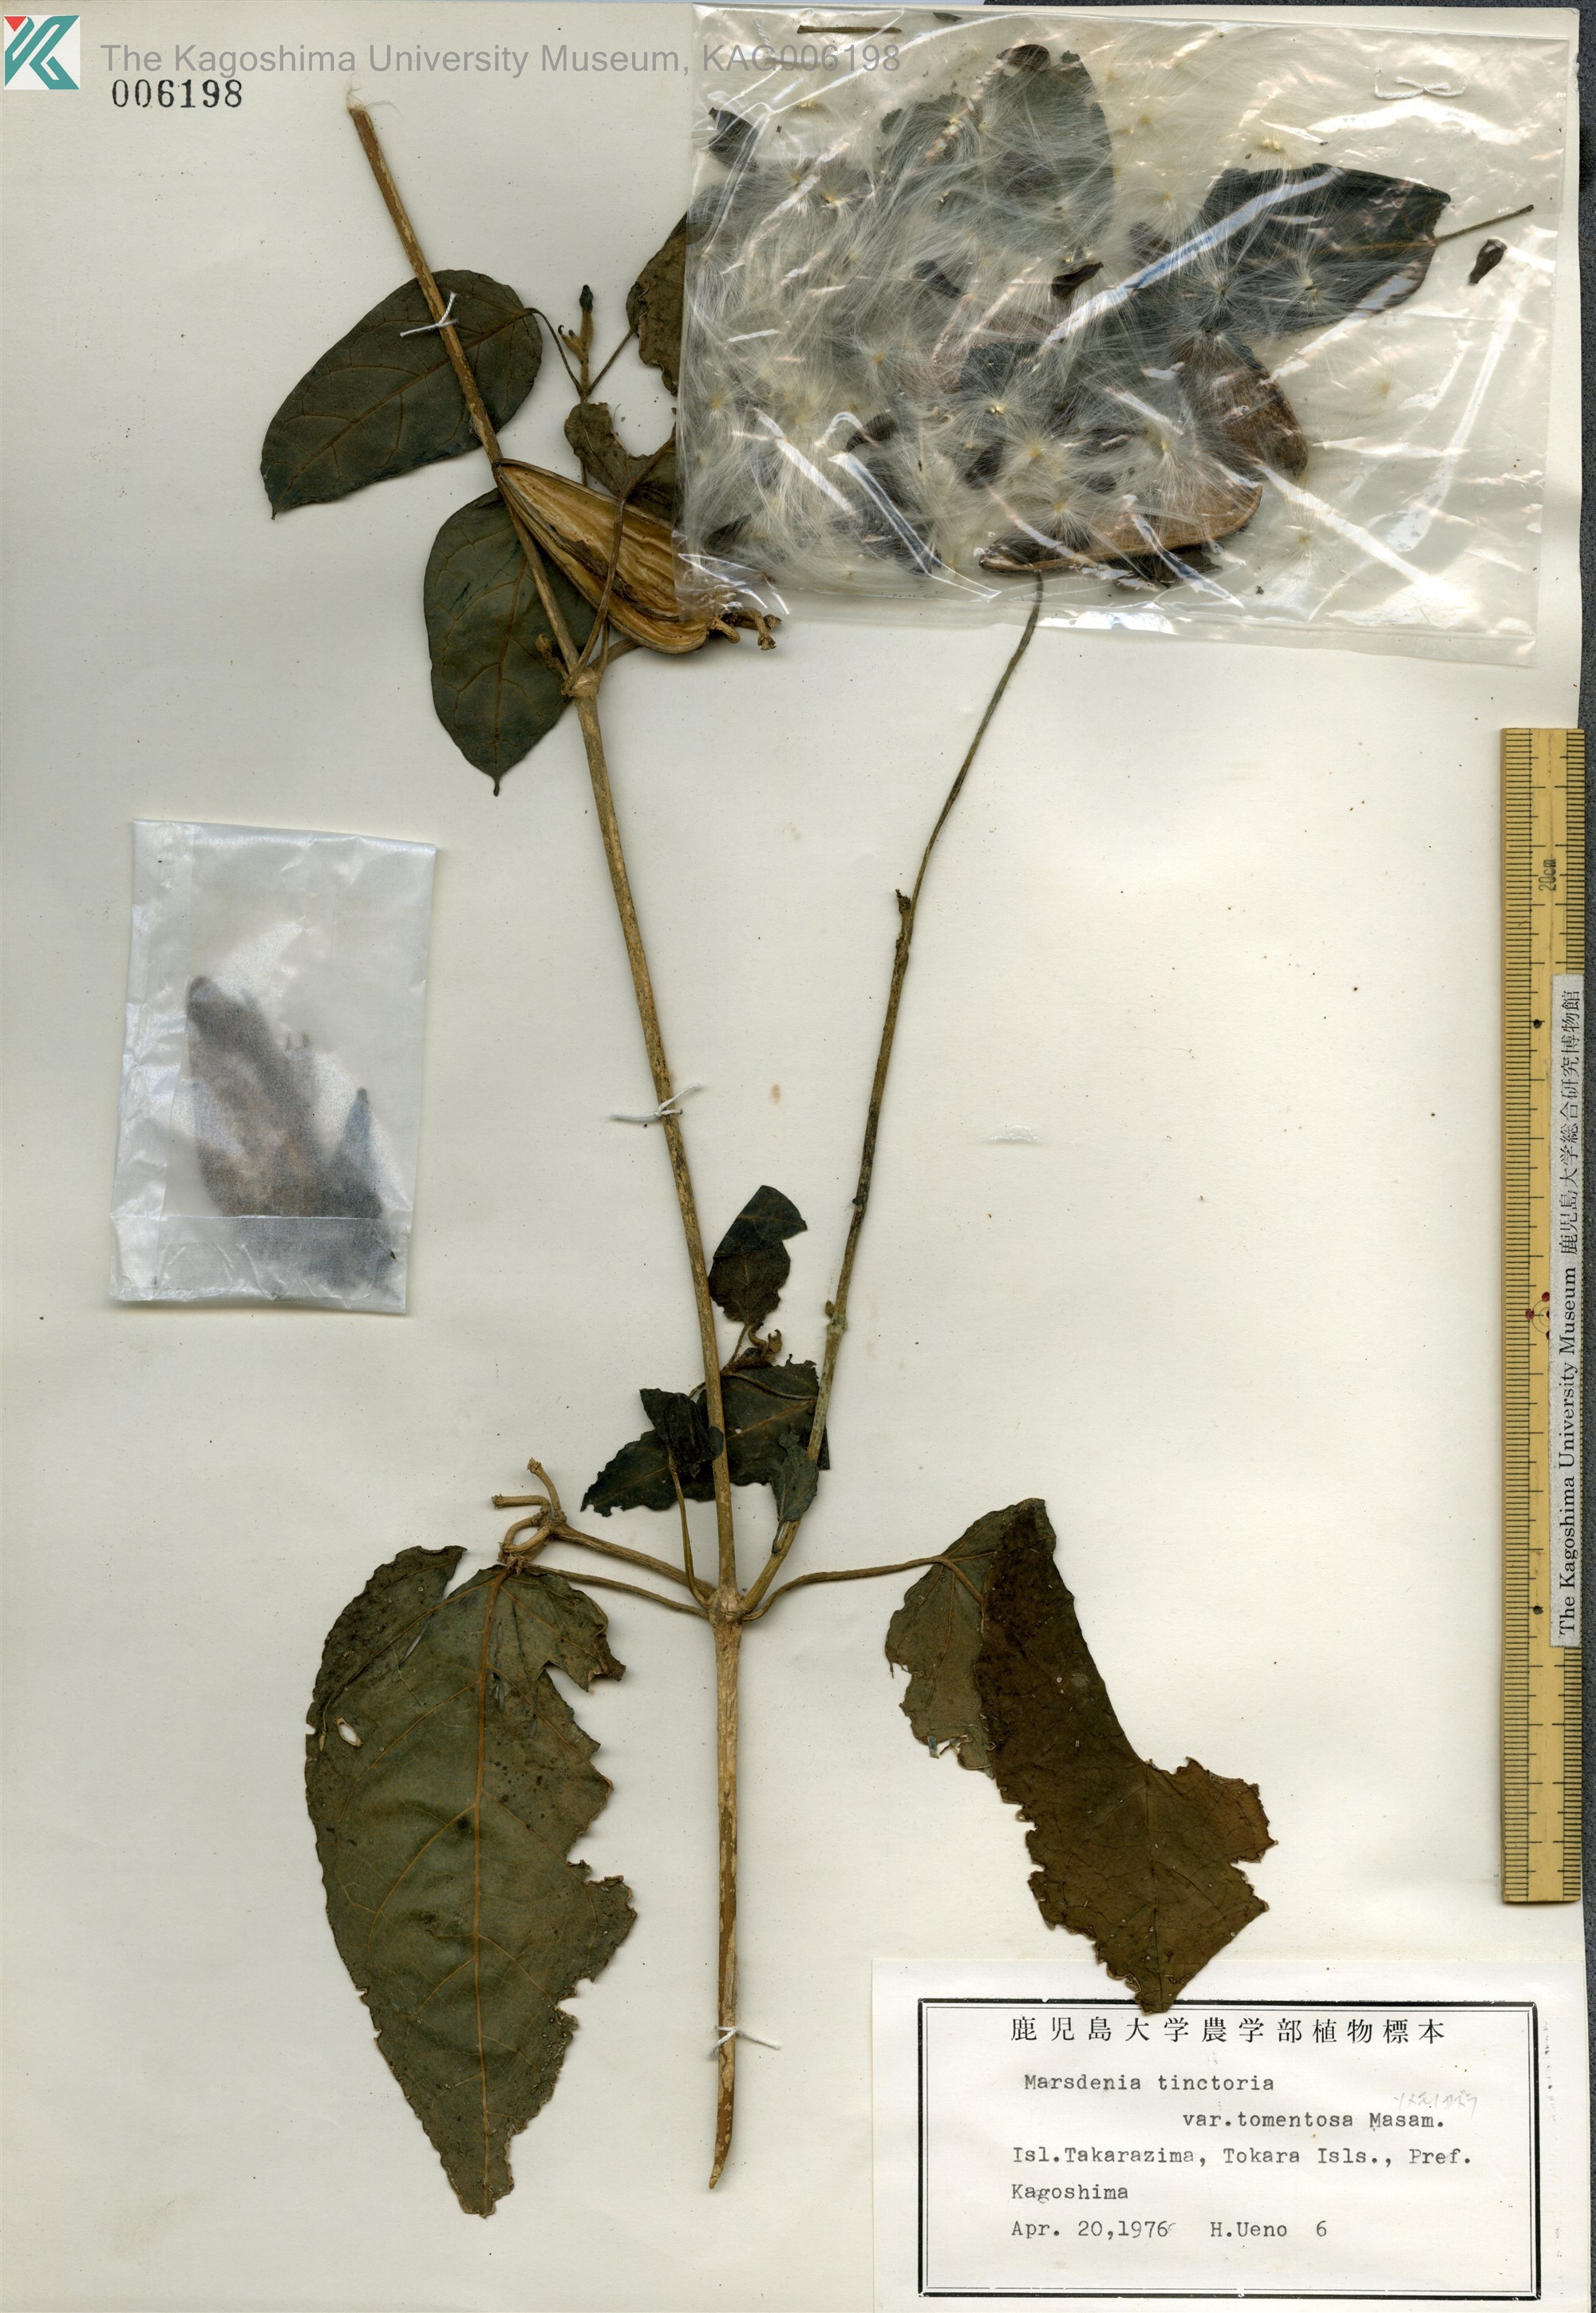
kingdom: Plantae
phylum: Tracheophyta
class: Magnoliopsida
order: Gentianales
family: Apocynaceae
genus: Marsdenia
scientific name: Marsdenia tinctoria
